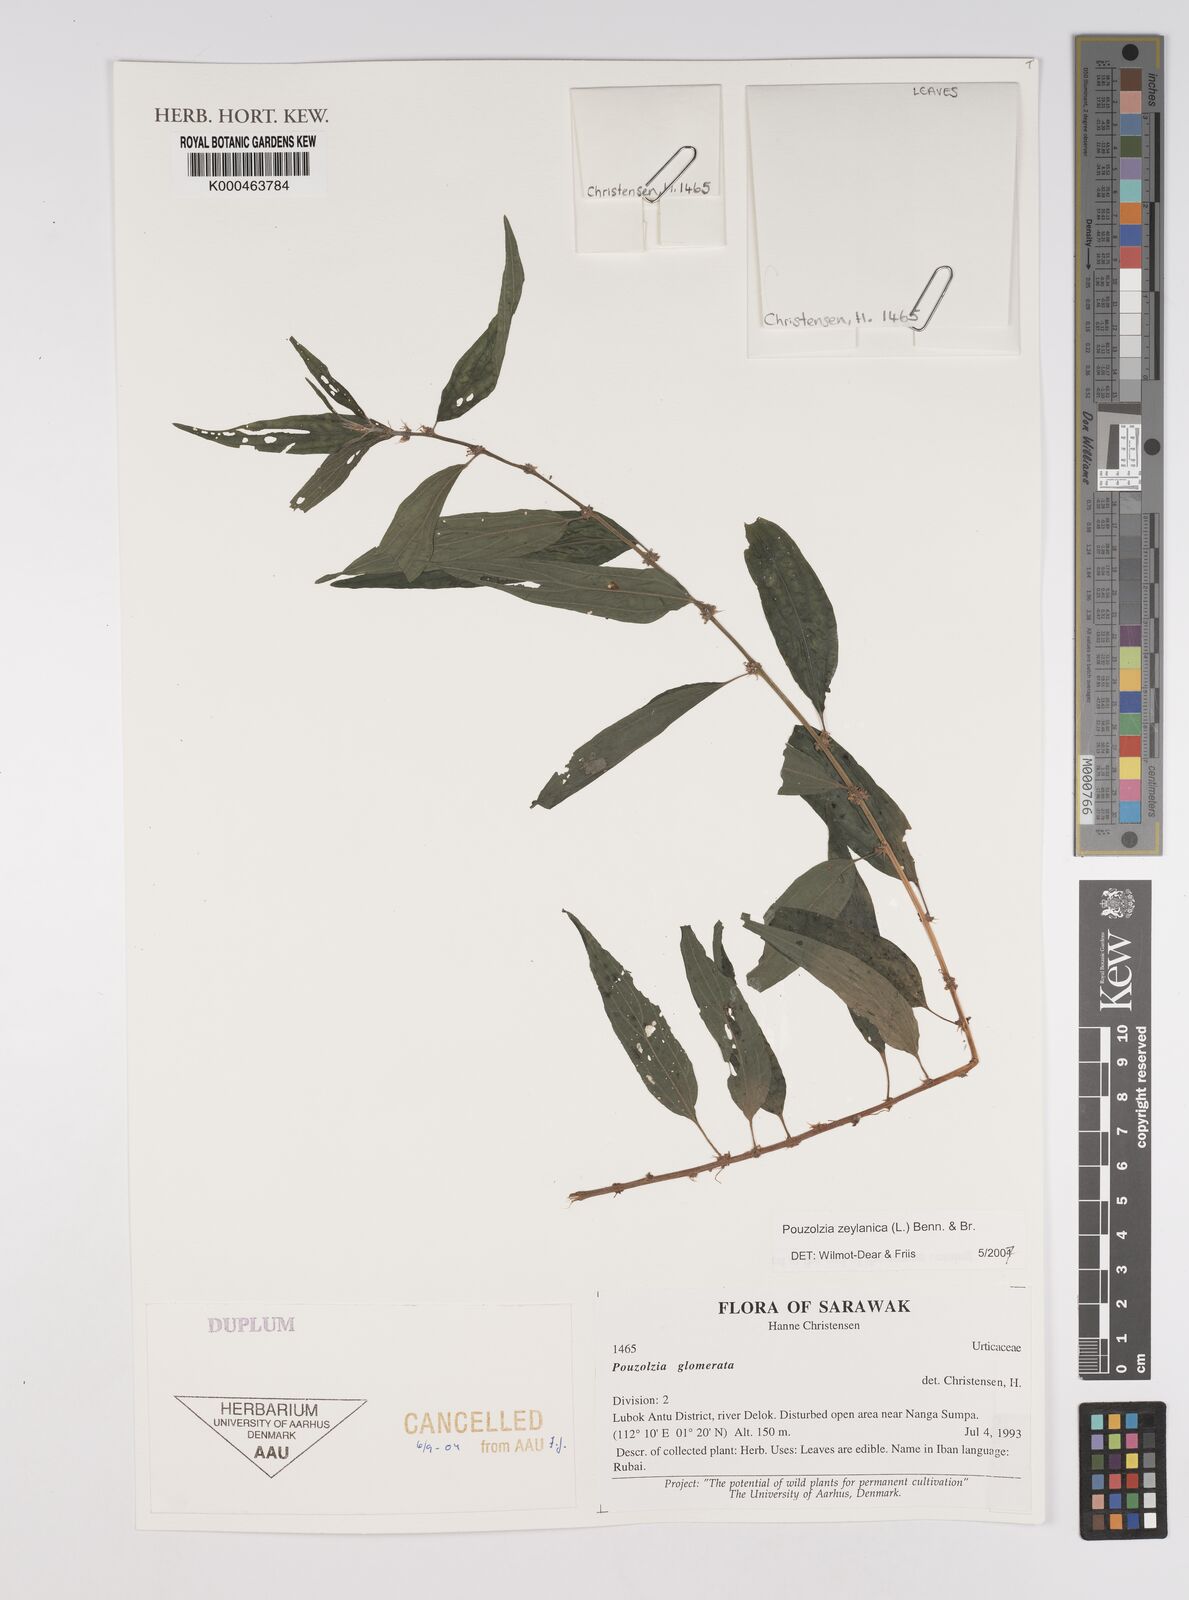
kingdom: Plantae
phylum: Tracheophyta
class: Magnoliopsida
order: Rosales
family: Urticaceae
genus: Pouzolzia
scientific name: Pouzolzia zeylanica
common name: Graceful pouzolzsbush
